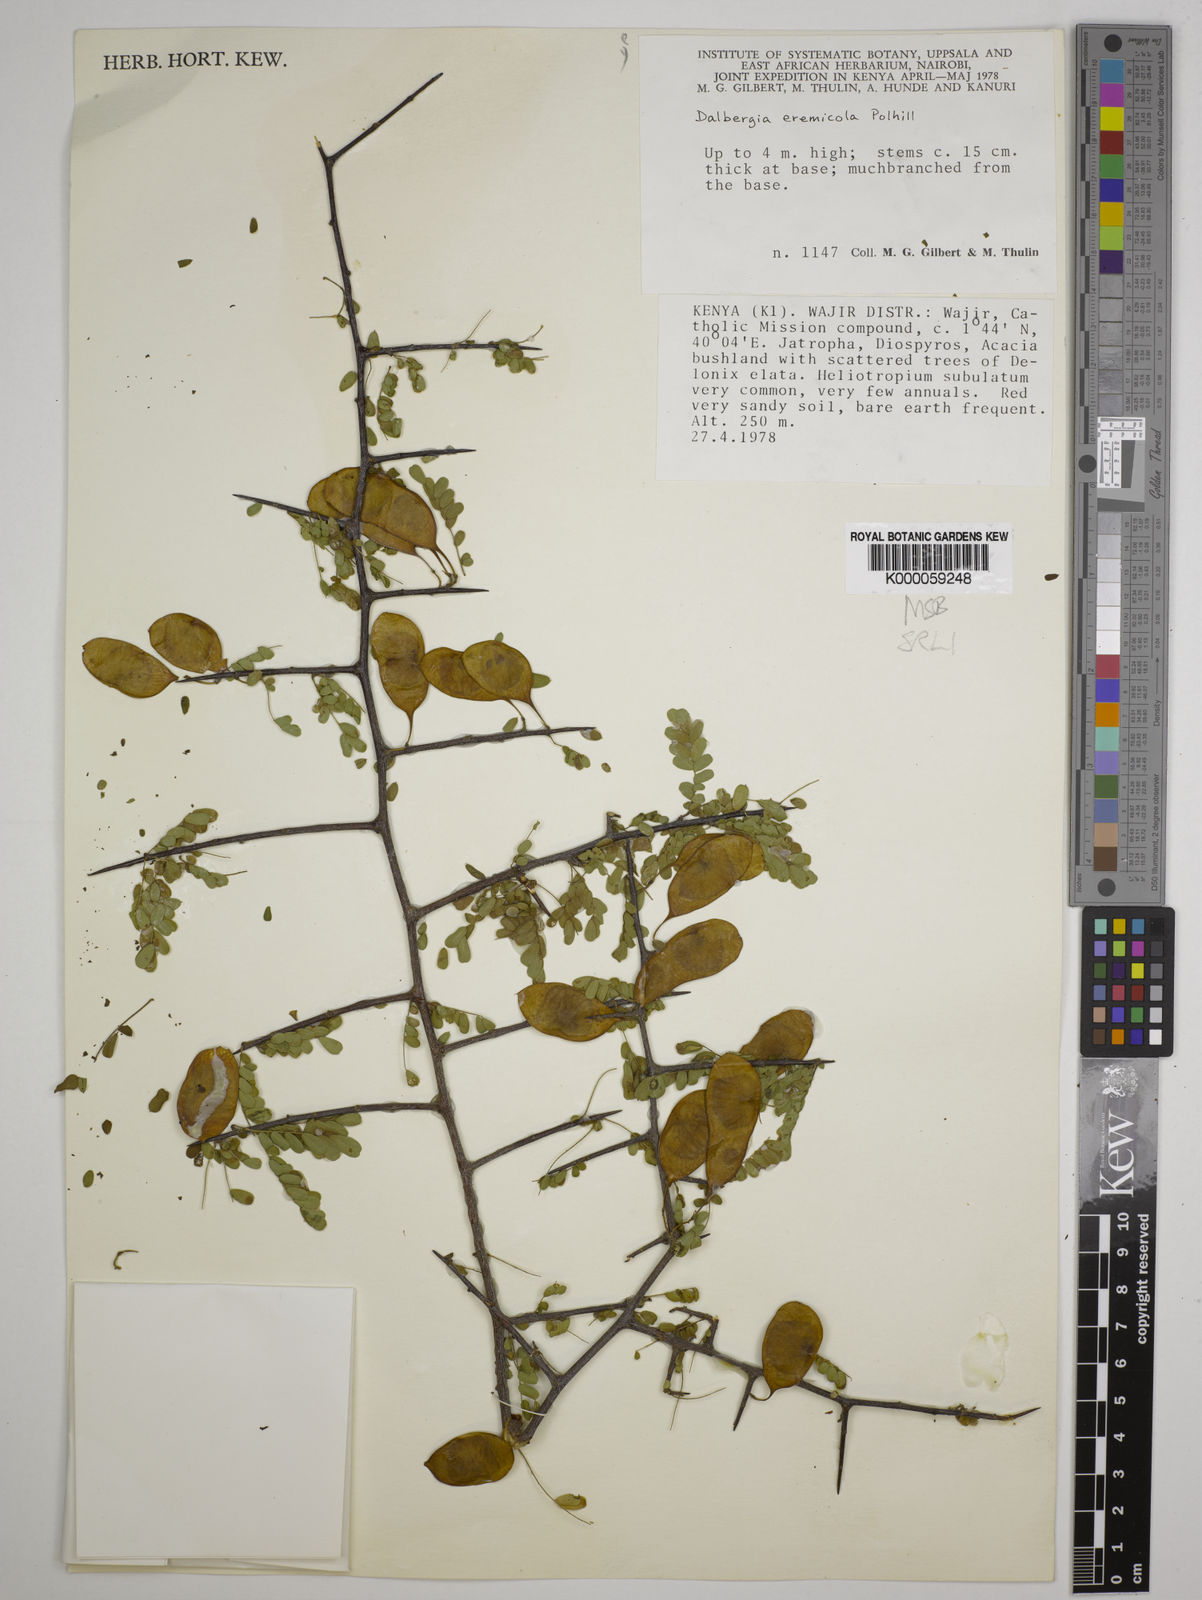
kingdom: Plantae
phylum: Tracheophyta
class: Magnoliopsida
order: Fabales
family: Fabaceae
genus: Dalbergia
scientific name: Dalbergia eremicola
